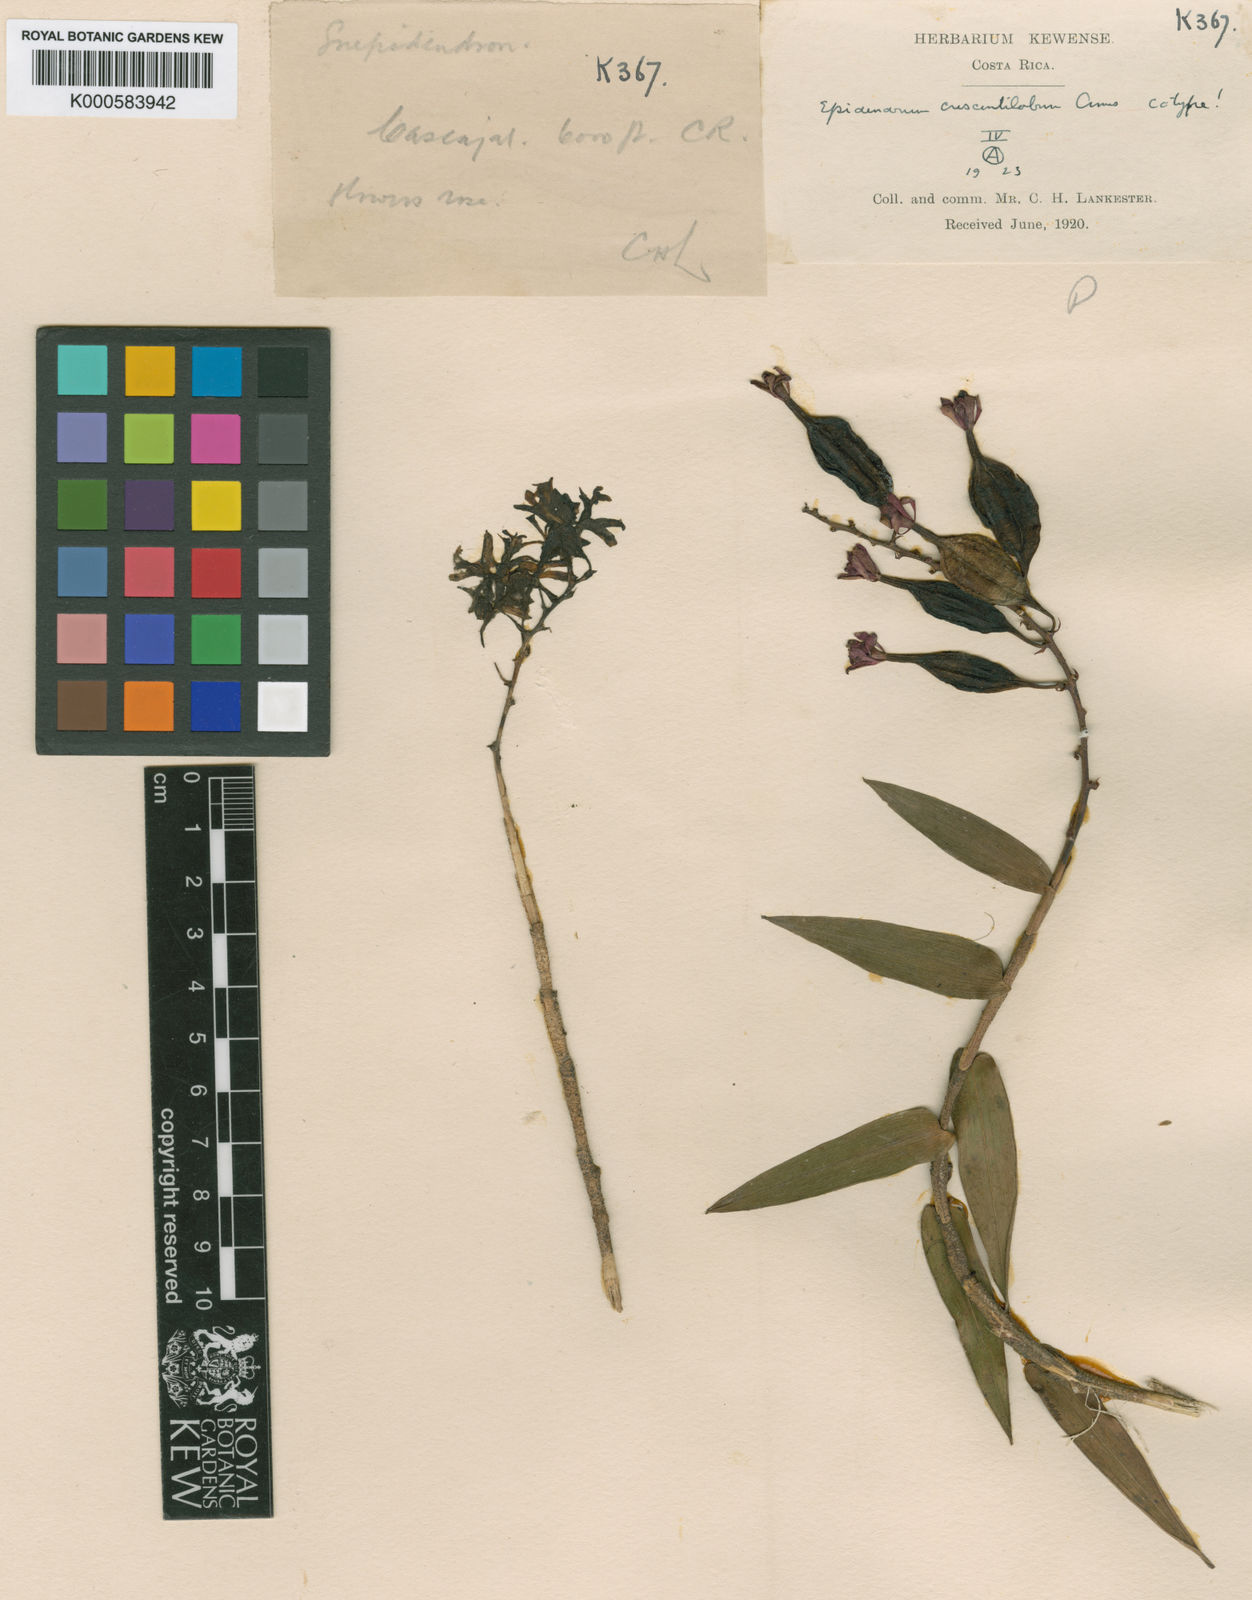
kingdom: Plantae
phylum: Tracheophyta
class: Liliopsida
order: Asparagales
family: Orchidaceae
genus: Epidendrum
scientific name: Epidendrum
